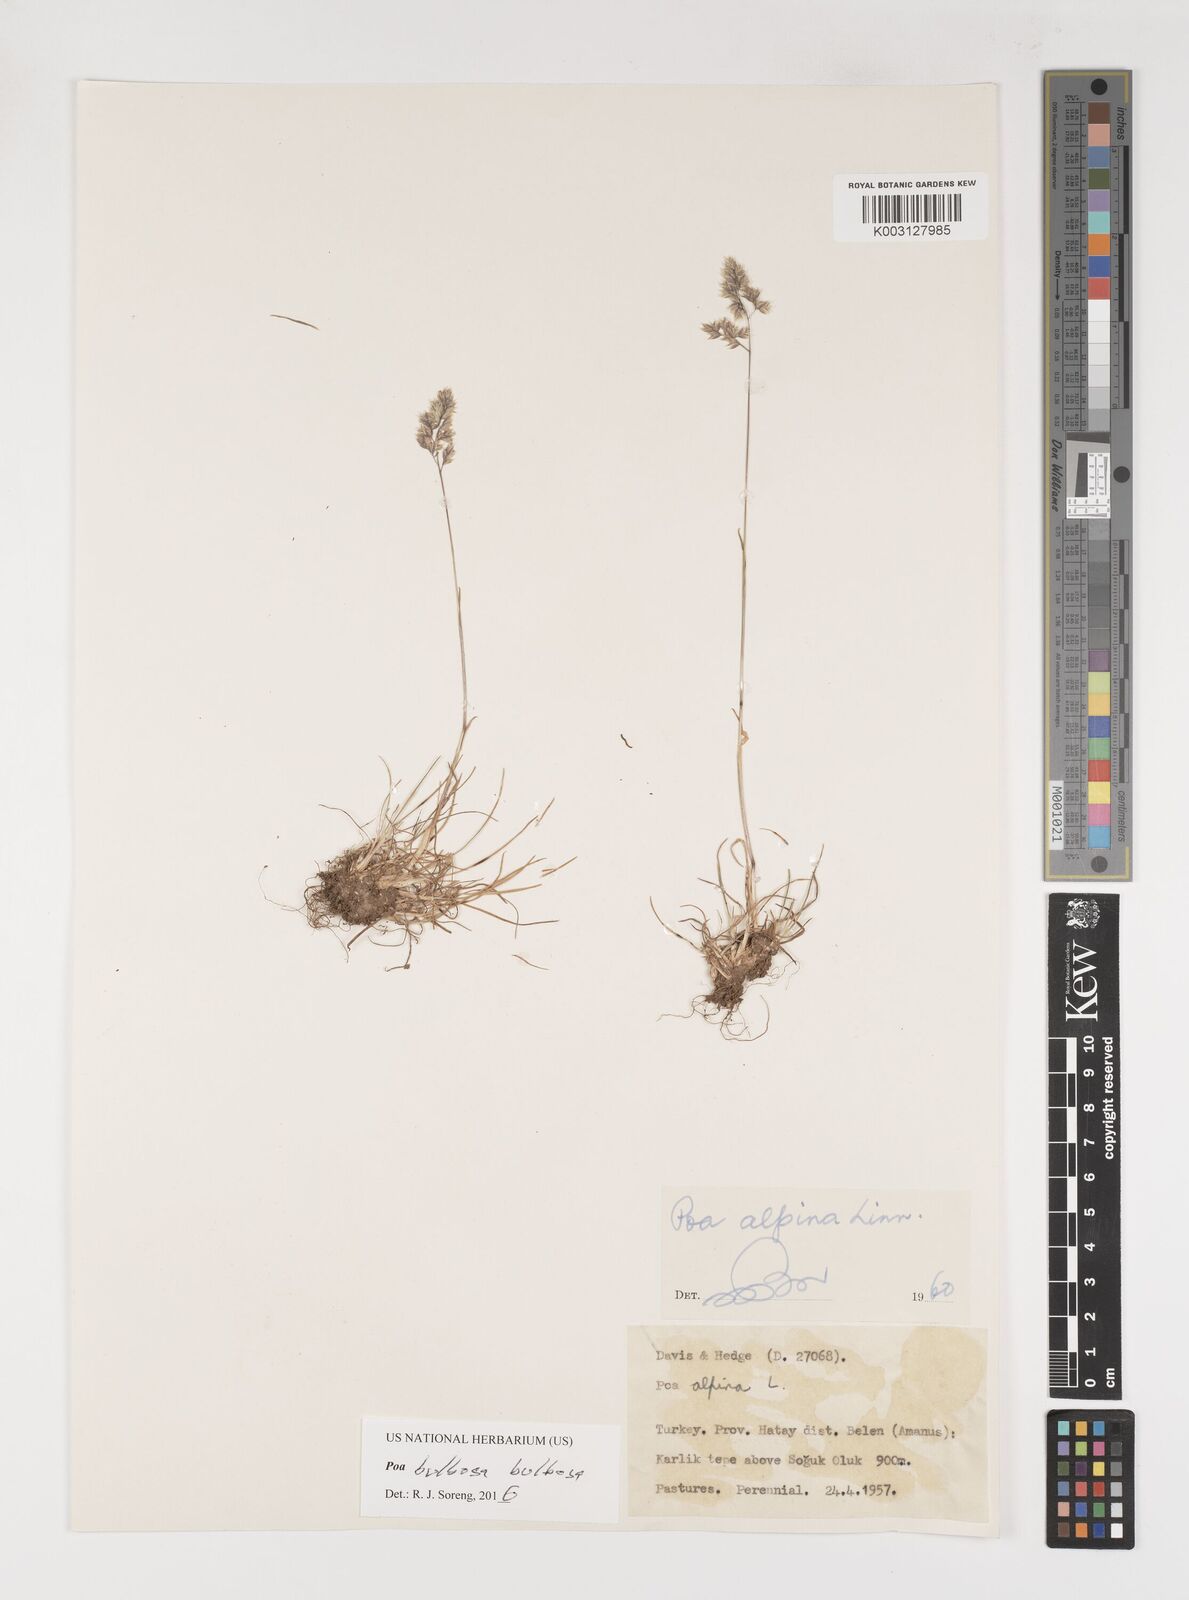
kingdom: Plantae
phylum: Tracheophyta
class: Liliopsida
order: Poales
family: Poaceae
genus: Poa
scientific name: Poa bulbosa
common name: Bulbous bluegrass
